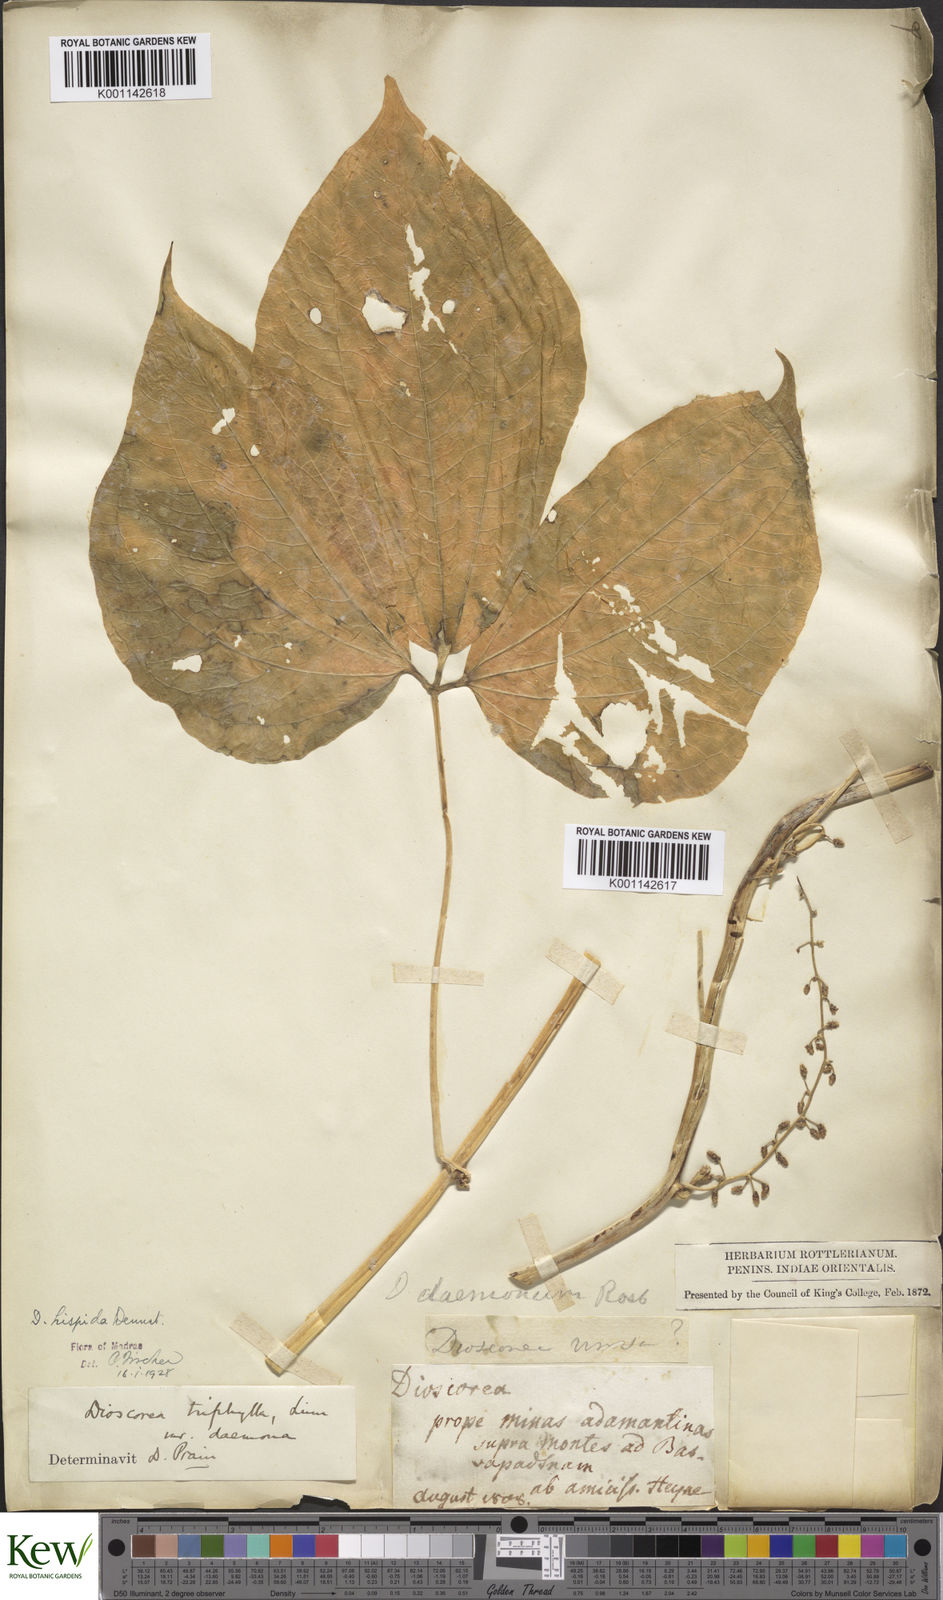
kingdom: Plantae
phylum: Tracheophyta
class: Liliopsida
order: Dioscoreales
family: Dioscoreaceae
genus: Dioscorea
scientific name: Dioscorea hispida
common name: Asiatic bitter yam
